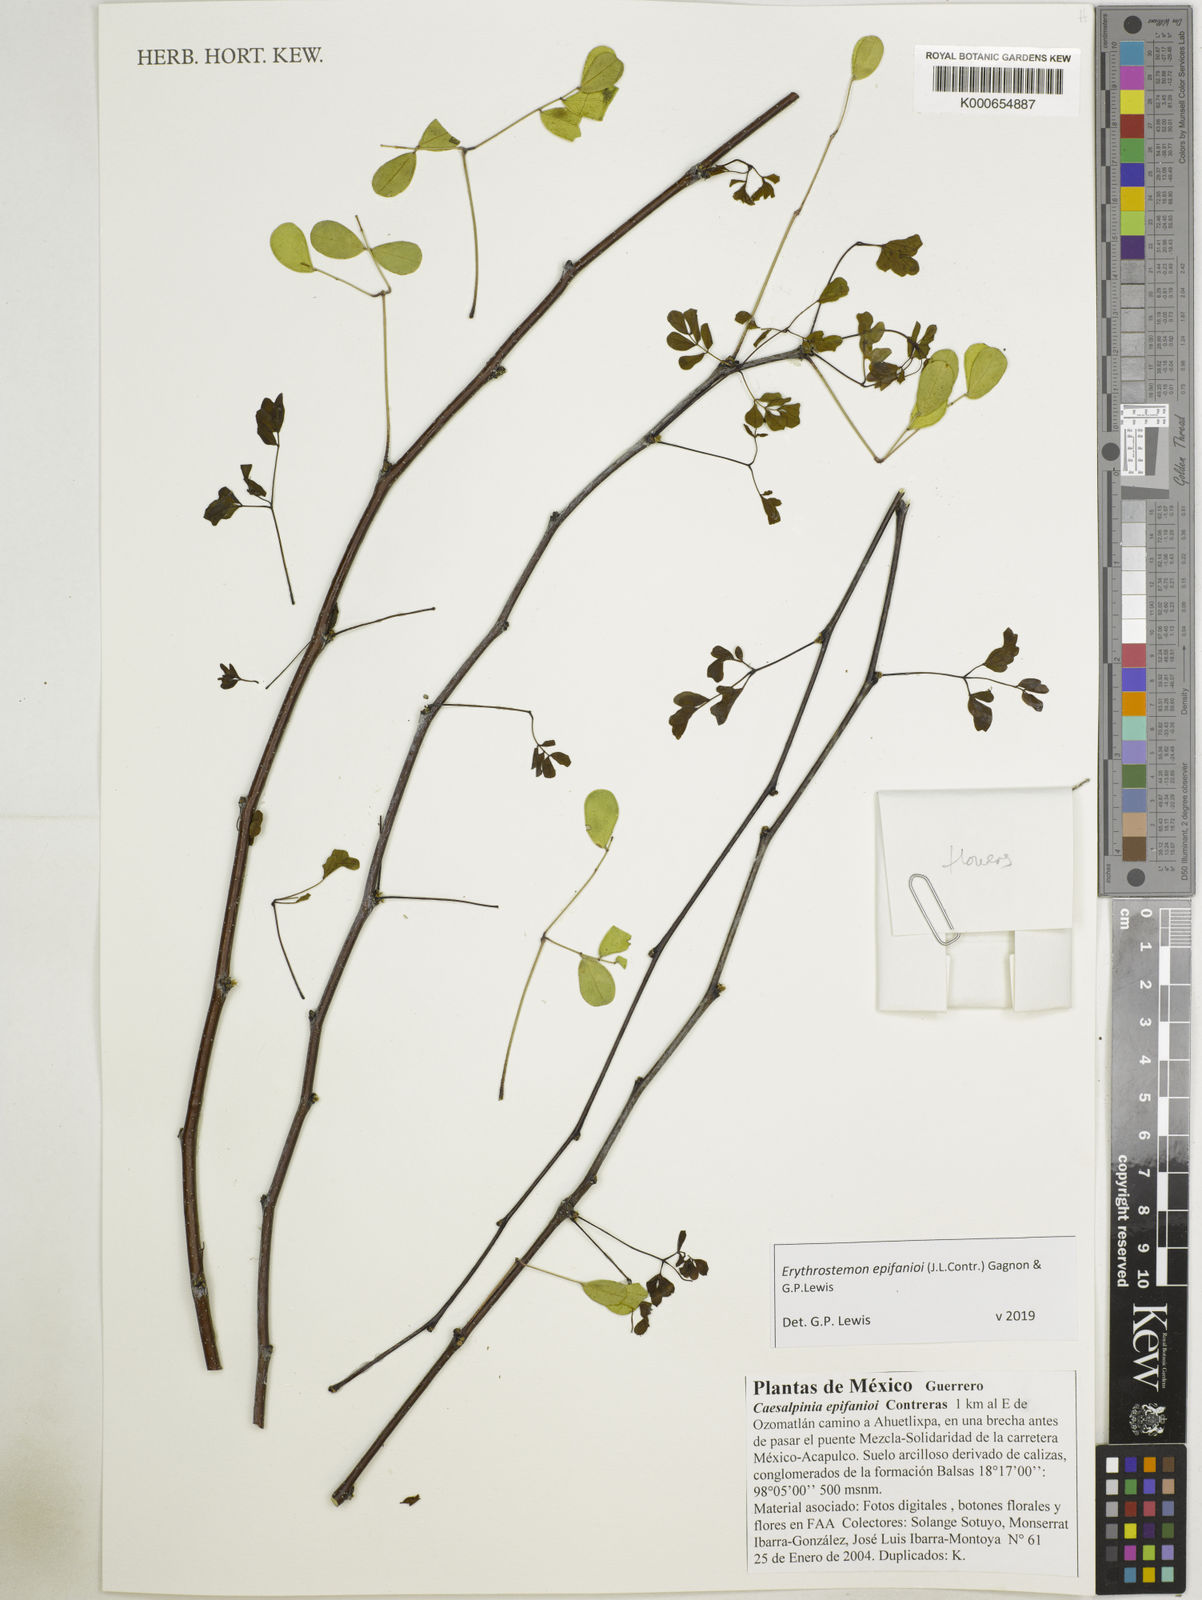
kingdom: Plantae
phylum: Tracheophyta
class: Magnoliopsida
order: Fabales
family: Fabaceae
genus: Erythrostemon
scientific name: Erythrostemon epifanioi
